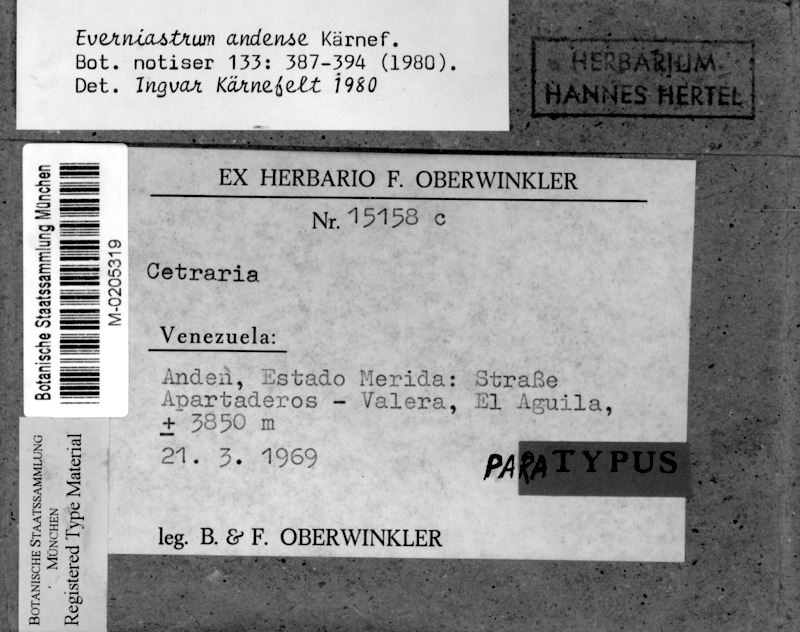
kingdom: Fungi
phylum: Ascomycota
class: Lecanoromycetes
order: Lecanorales
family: Parmeliaceae
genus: Hypotrachyna
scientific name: Hypotrachyna kaernefeltii
